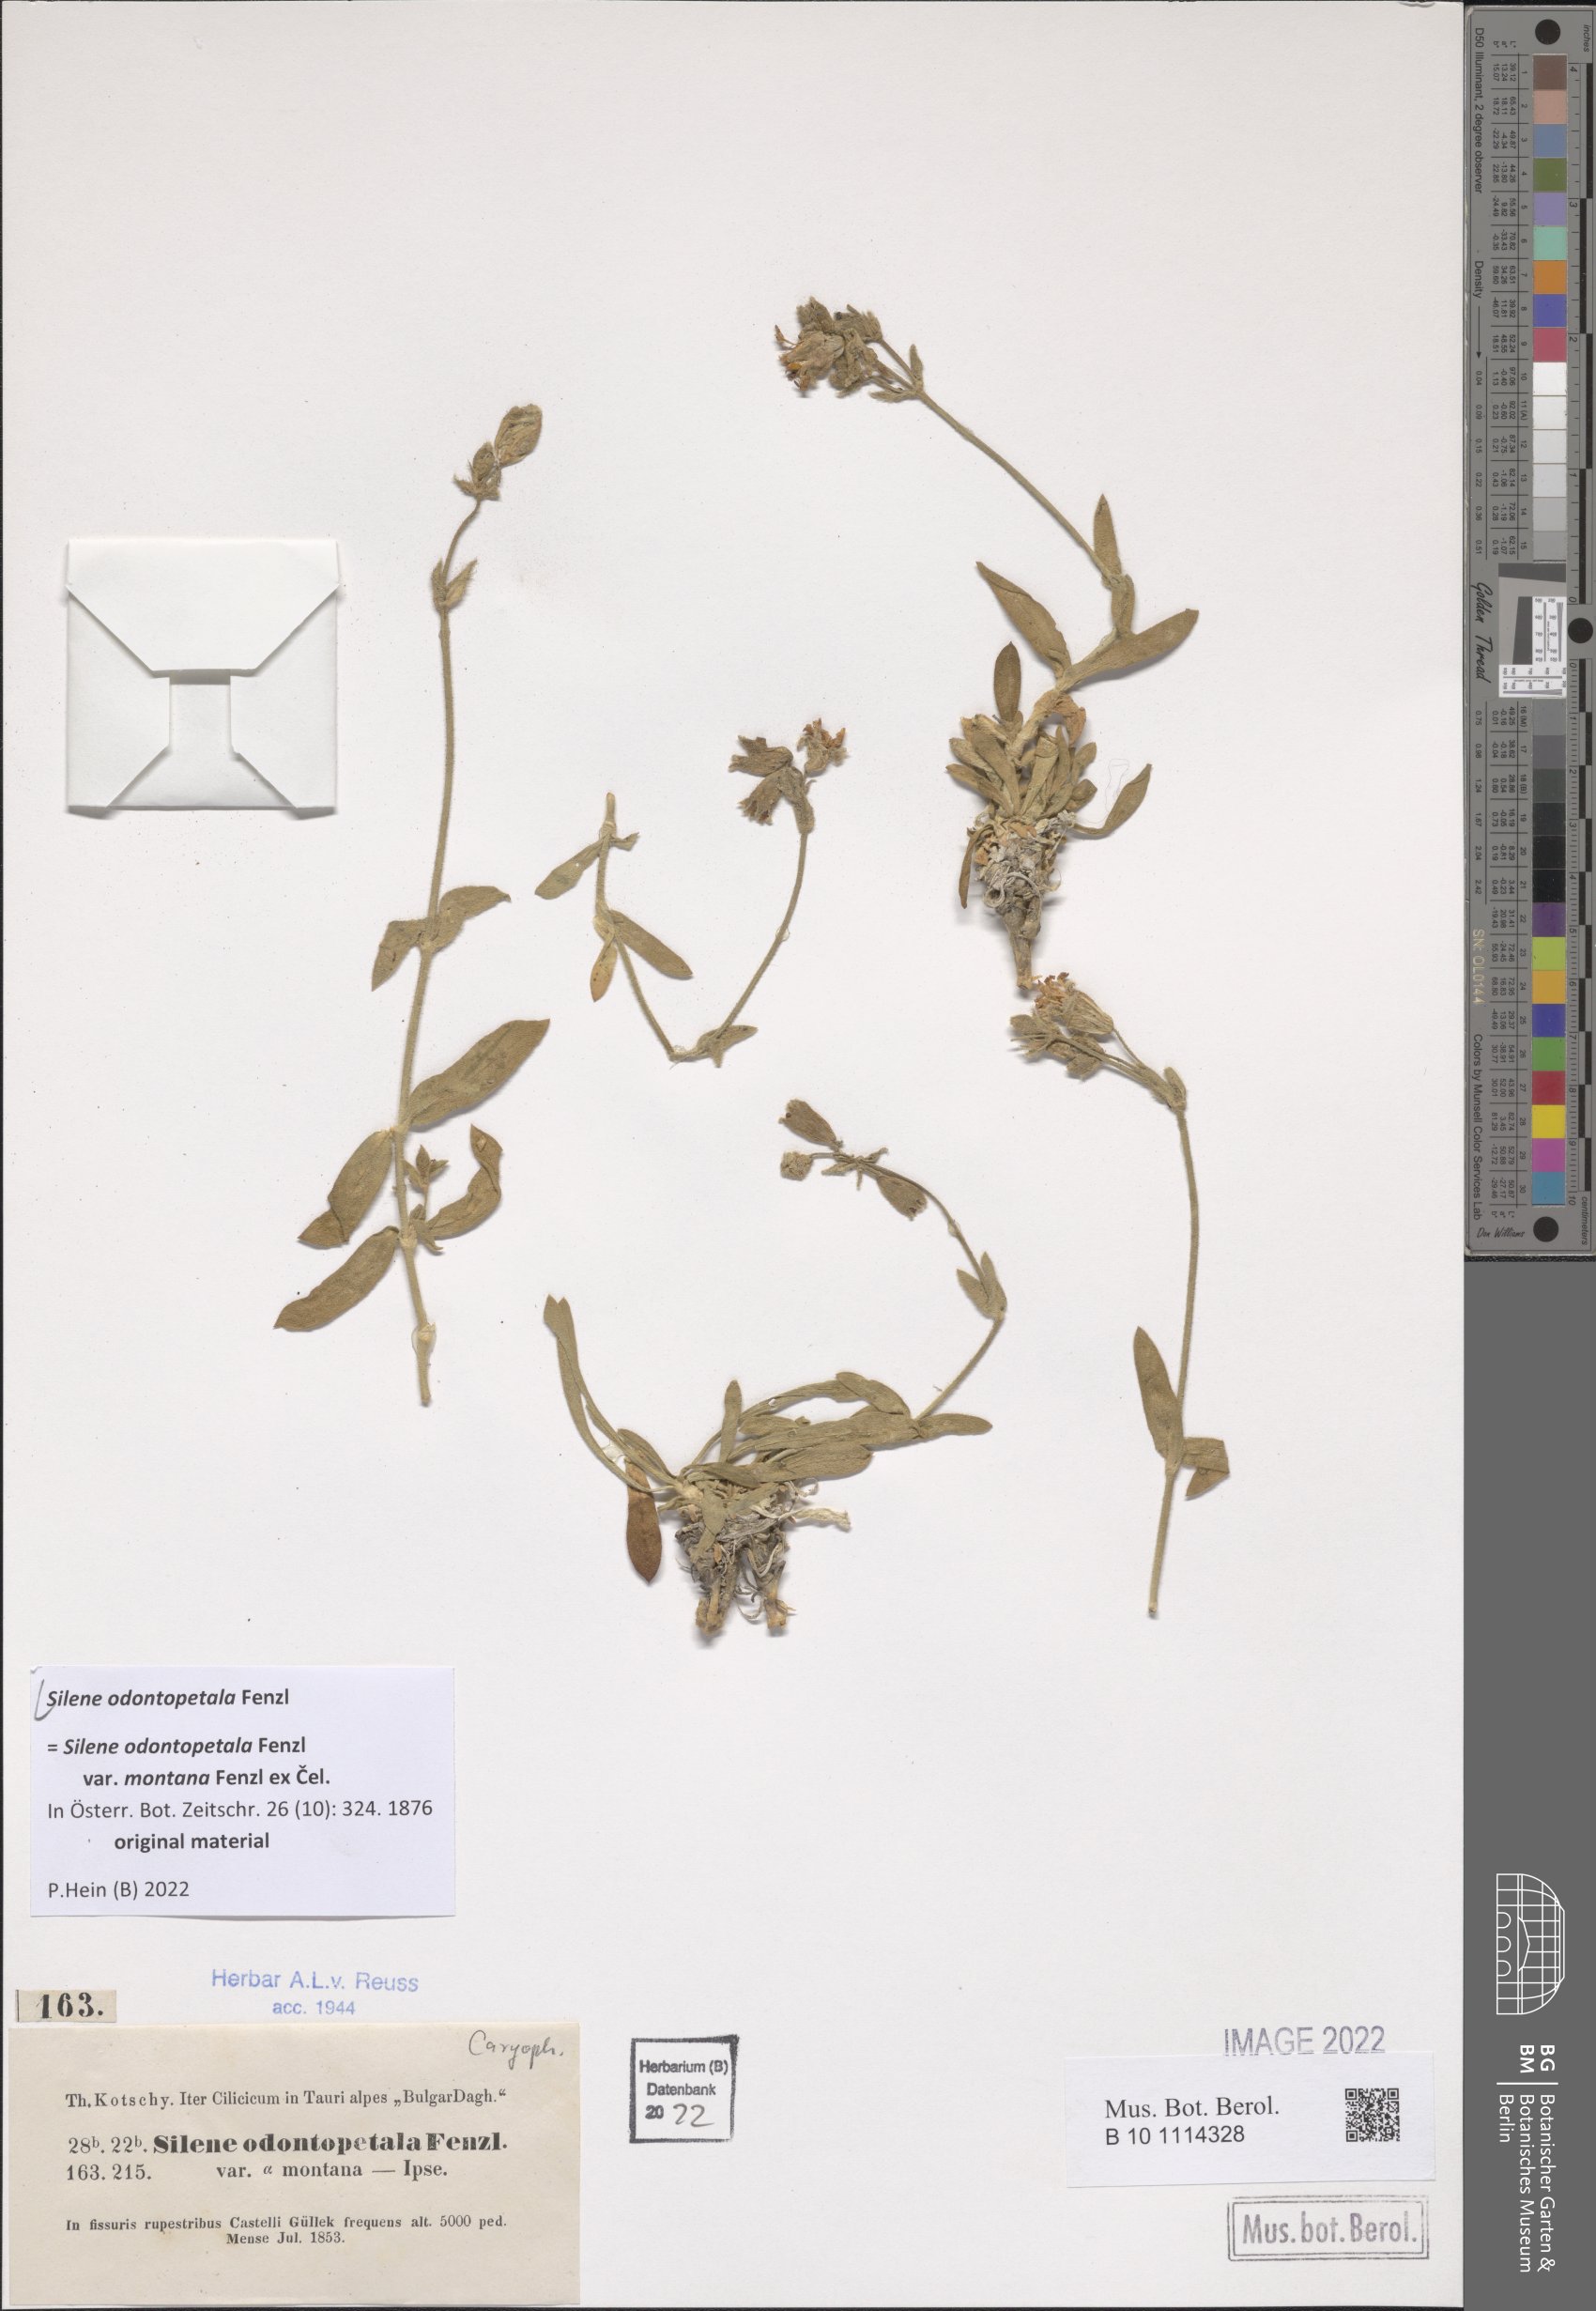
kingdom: Plantae
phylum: Tracheophyta
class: Magnoliopsida
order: Caryophyllales
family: Caryophyllaceae
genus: Silene
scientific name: Silene odontopetala
